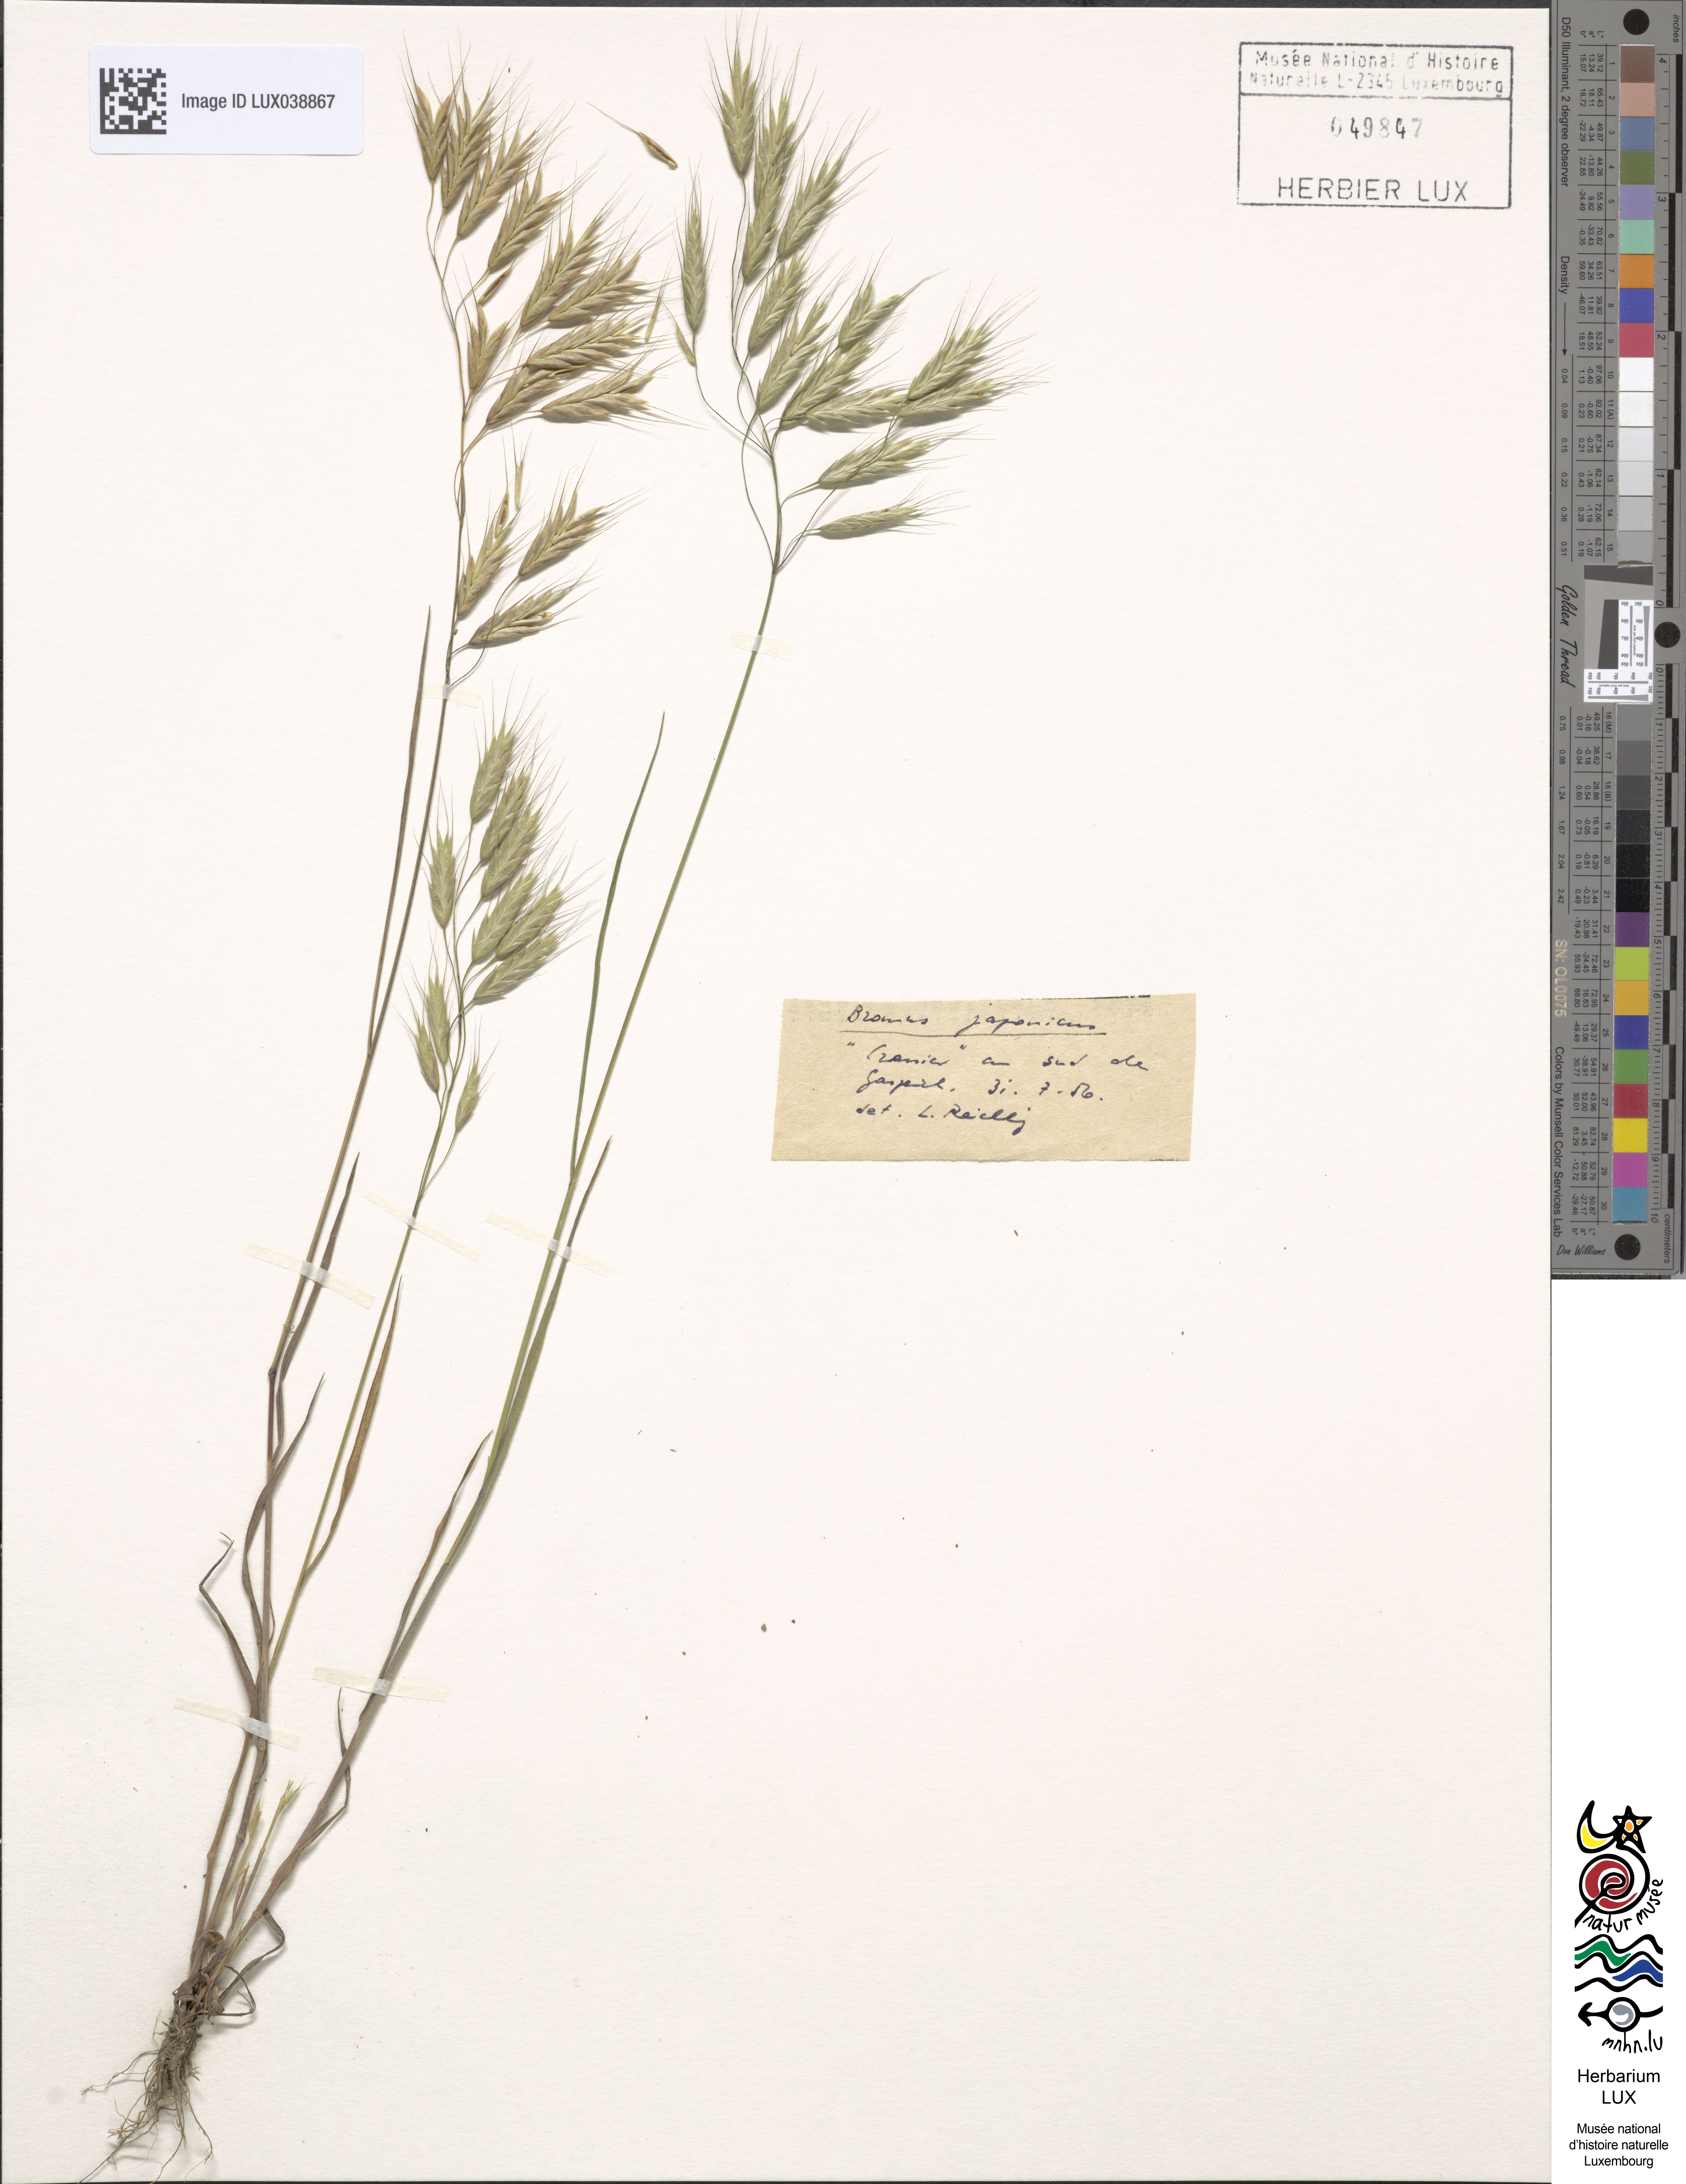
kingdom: Plantae
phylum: Tracheophyta
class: Liliopsida
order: Poales
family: Poaceae
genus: Bromus
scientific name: Bromus japonicus
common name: Japanese brome
